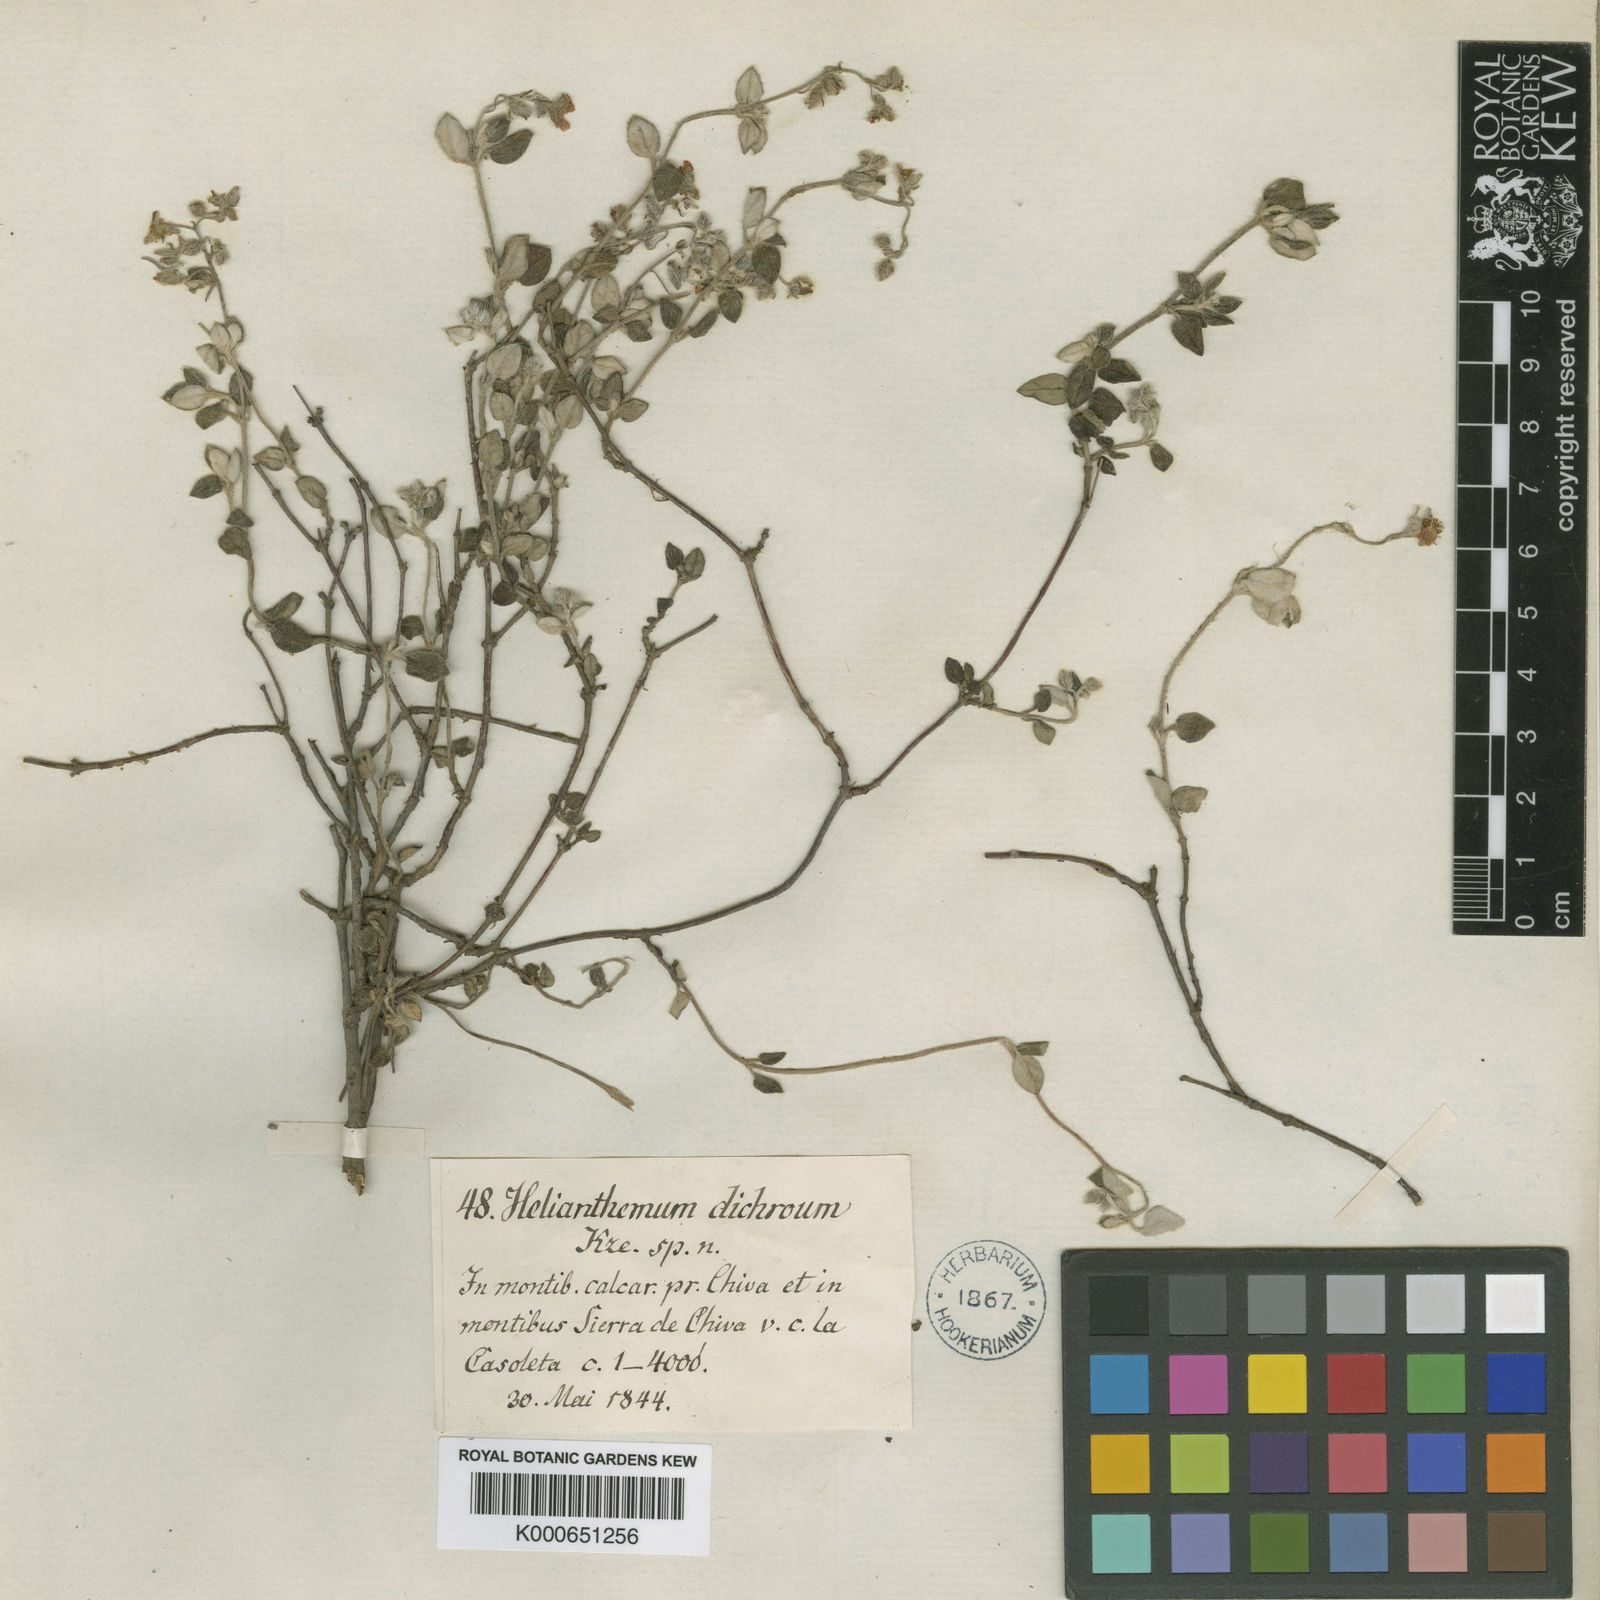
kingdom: Plantae
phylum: Tracheophyta
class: Magnoliopsida
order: Malvales
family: Cistaceae
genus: Helianthemum
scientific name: Helianthemum marifolium
